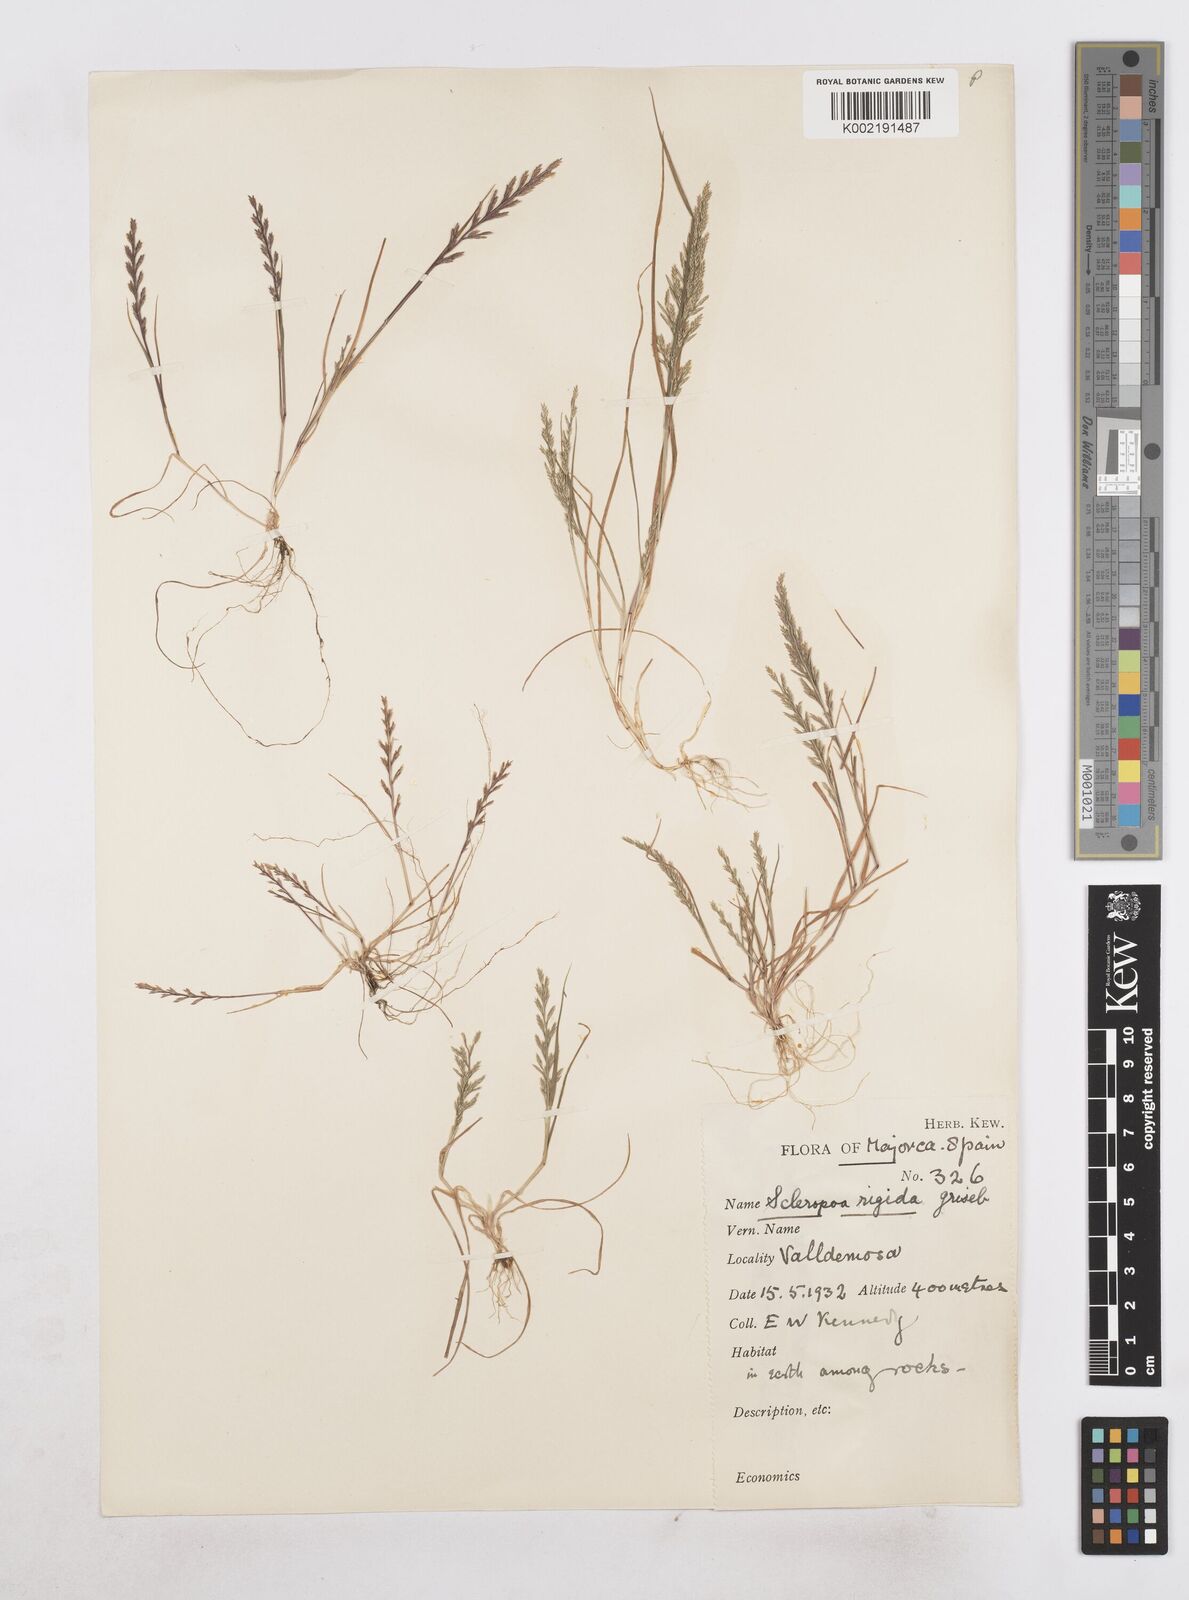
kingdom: Plantae
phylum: Tracheophyta
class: Liliopsida
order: Poales
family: Poaceae
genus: Catapodium
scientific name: Catapodium rigidum
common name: Fern-grass
